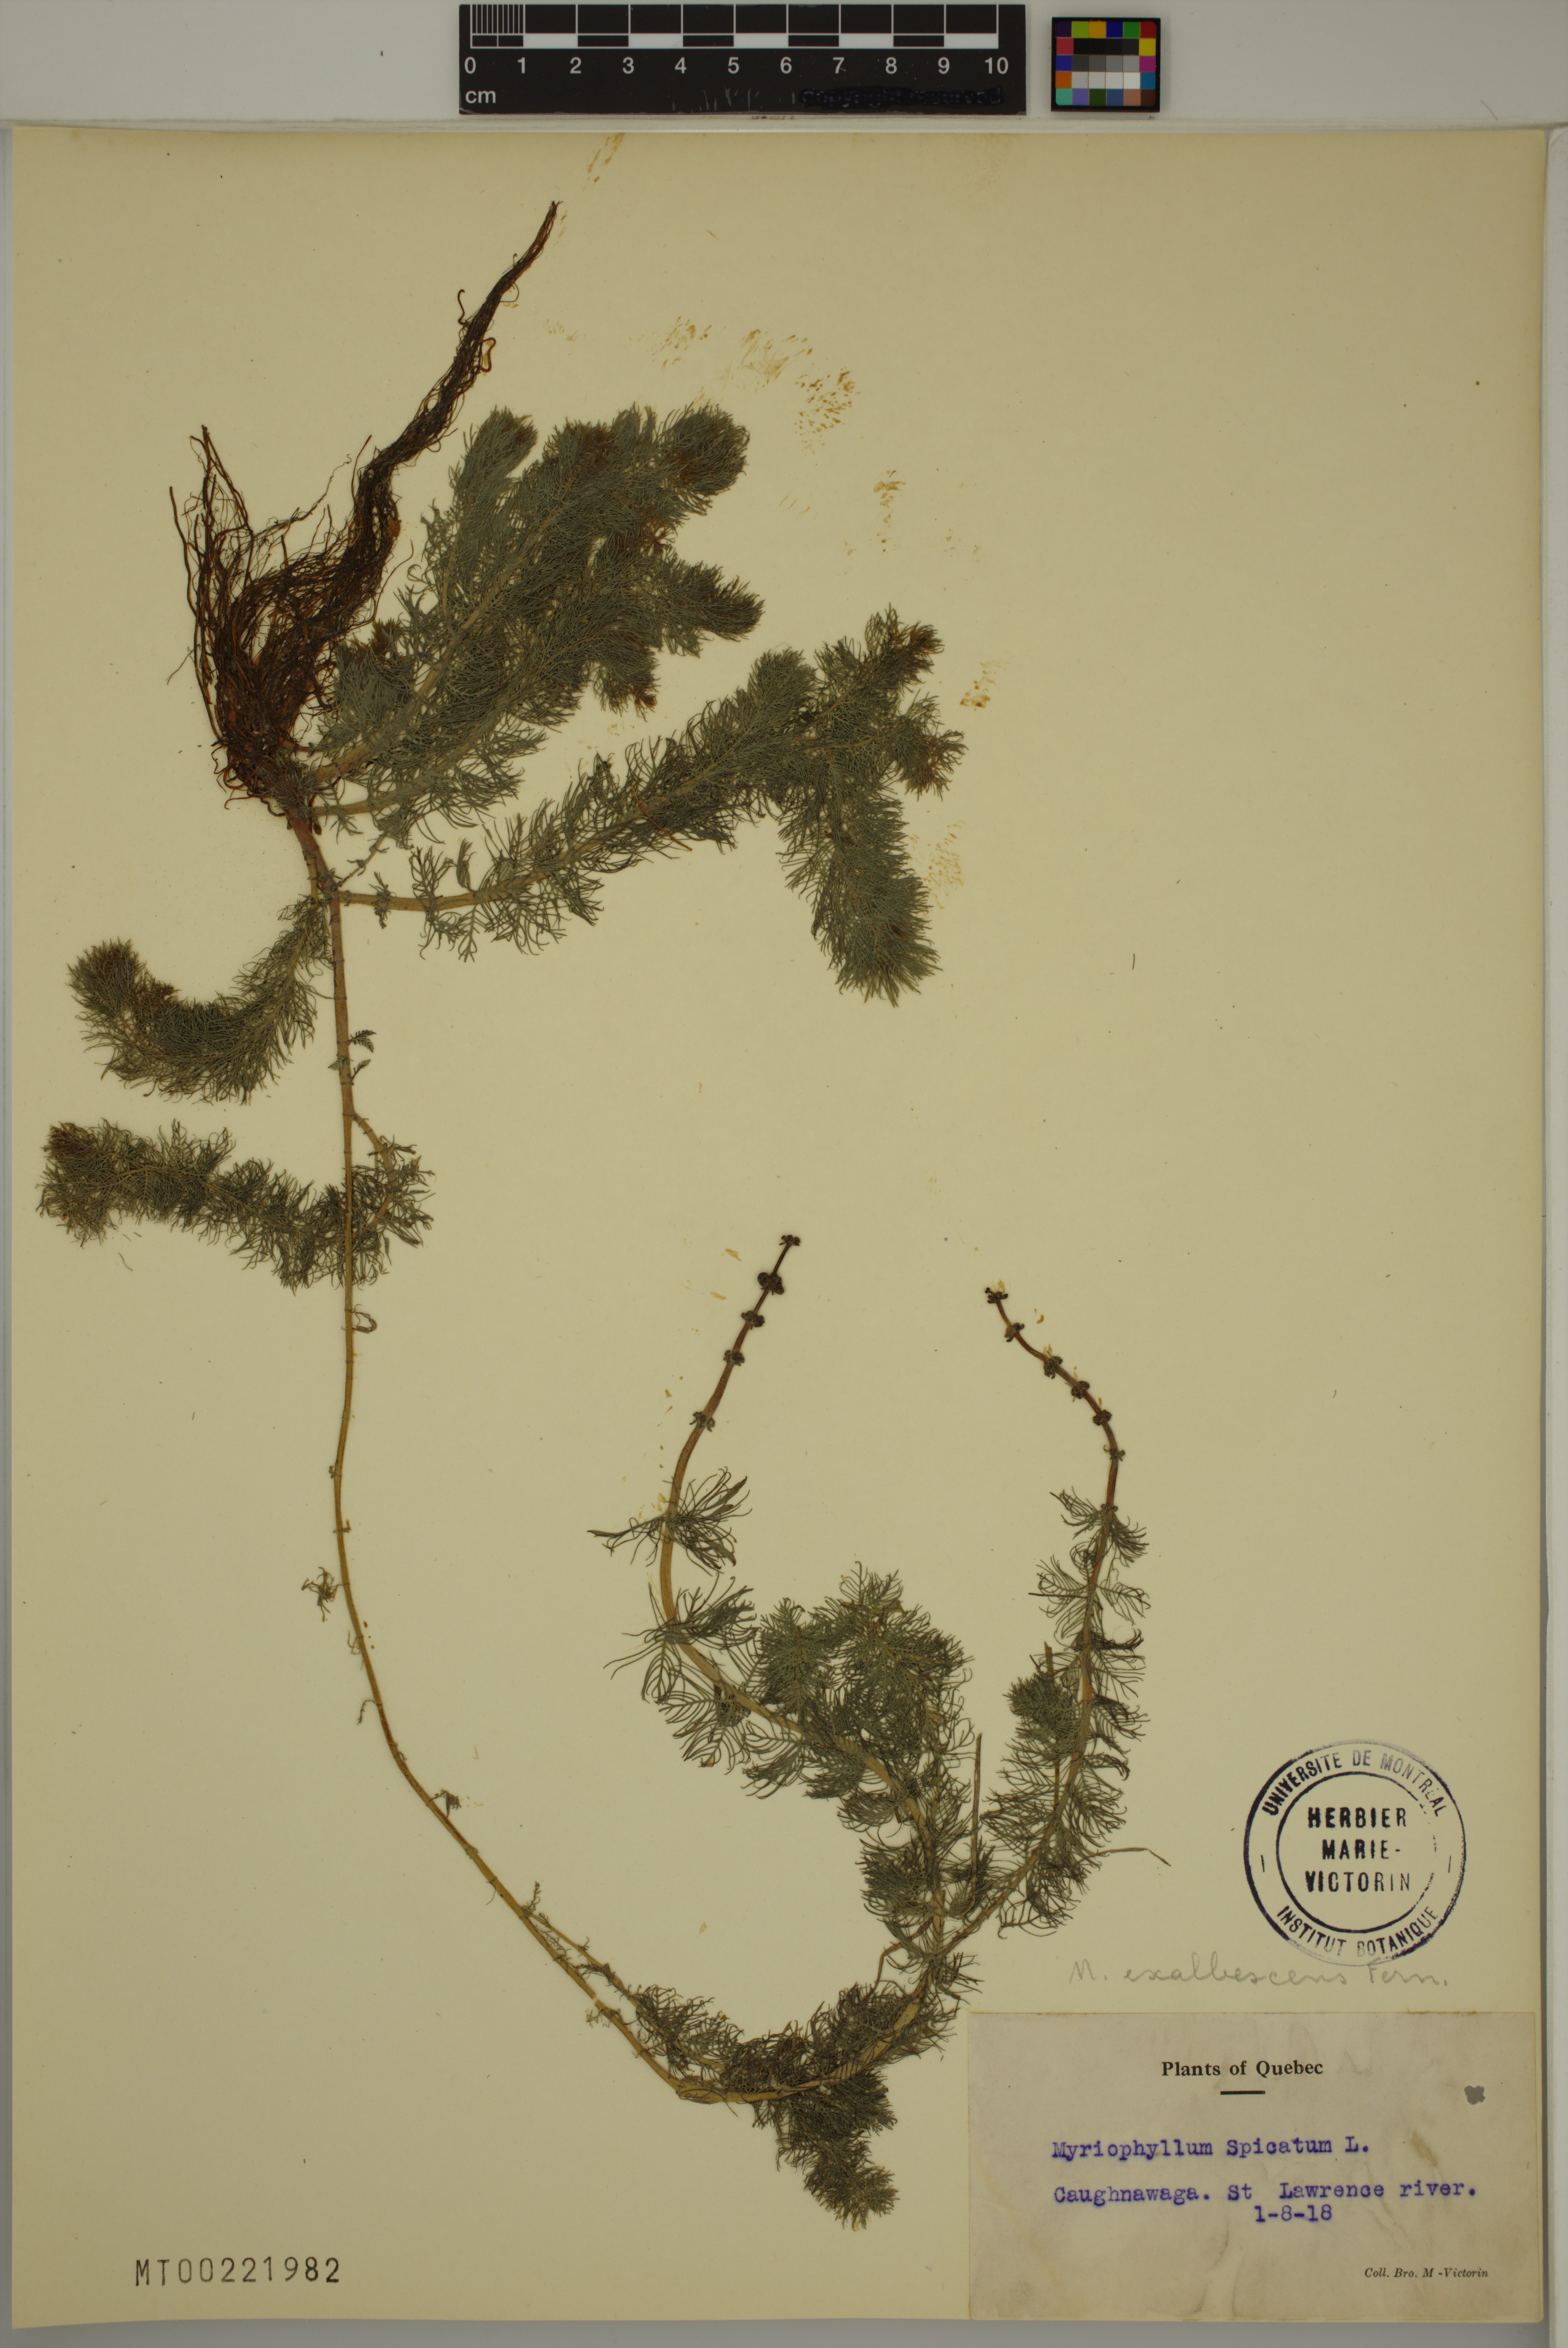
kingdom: Plantae
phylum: Tracheophyta
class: Magnoliopsida
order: Saxifragales
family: Haloragaceae
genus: Myriophyllum
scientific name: Myriophyllum sibiricum
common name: Siberian water-milfoil
